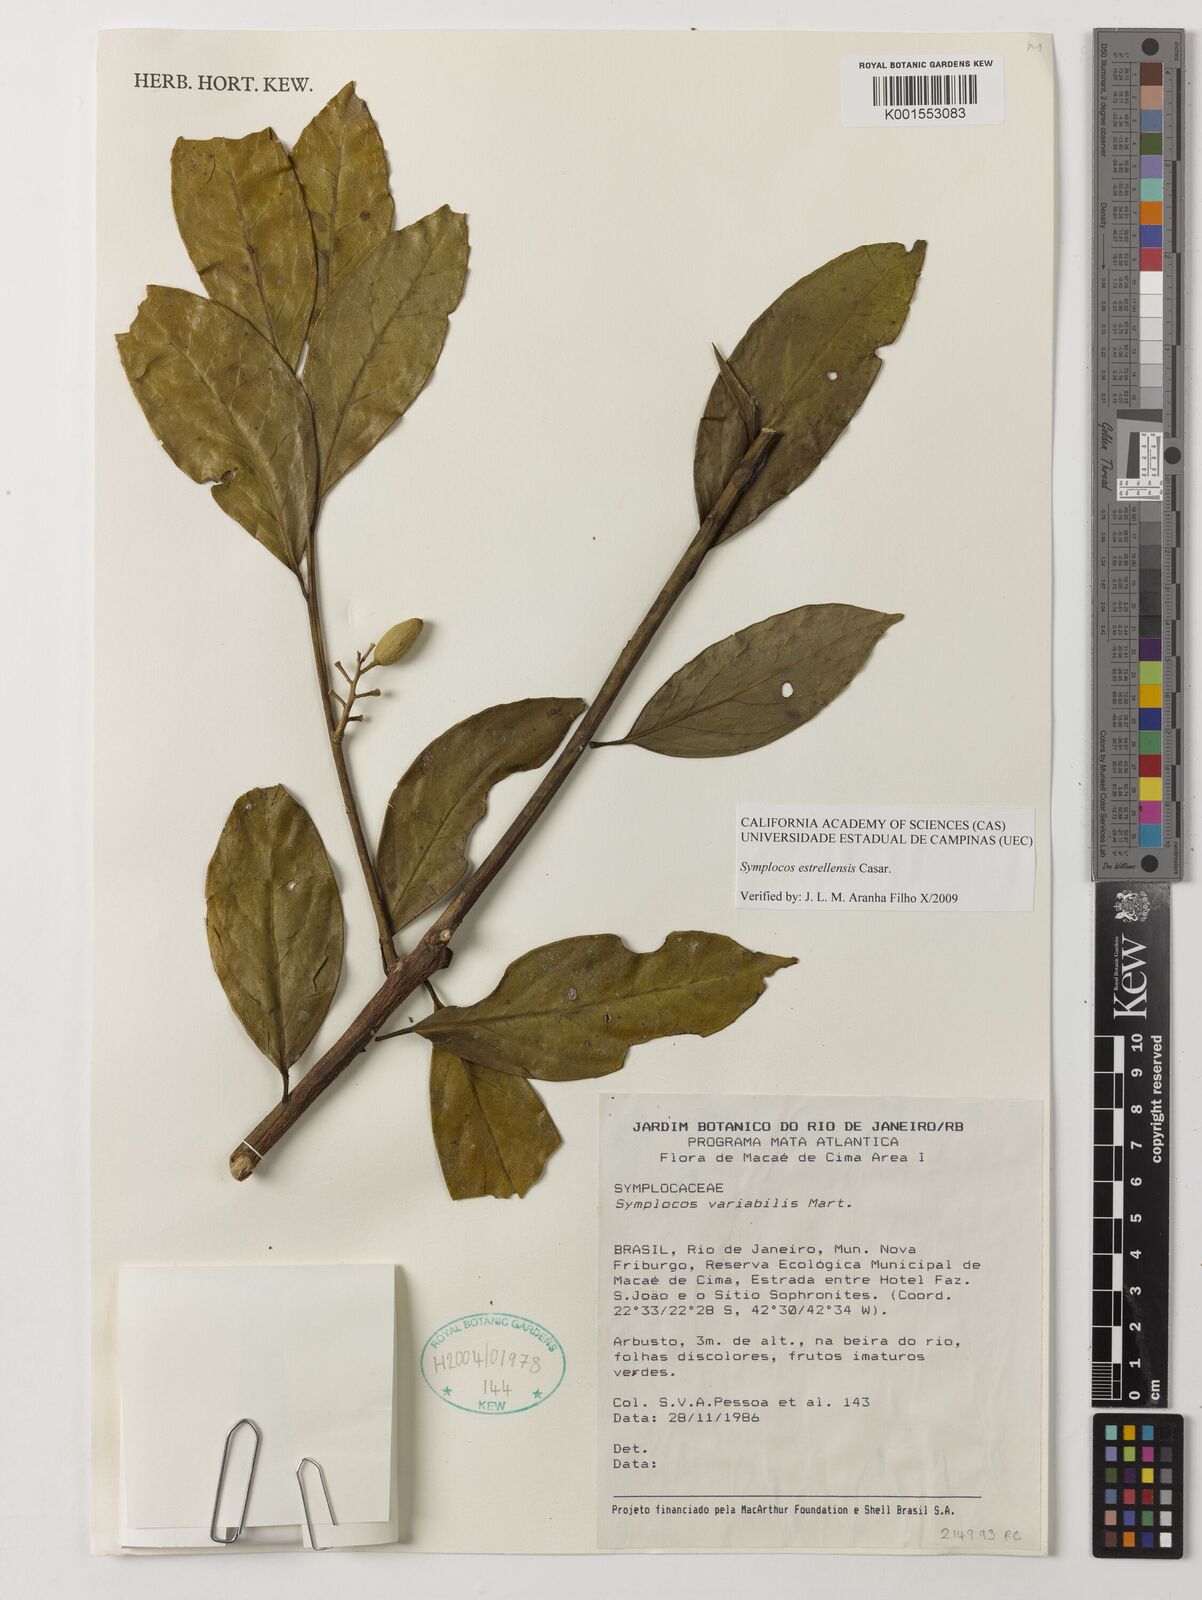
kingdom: Plantae
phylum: Tracheophyta
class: Magnoliopsida
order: Ericales
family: Symplocaceae
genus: Symplocos
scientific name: Symplocos estrellensis
